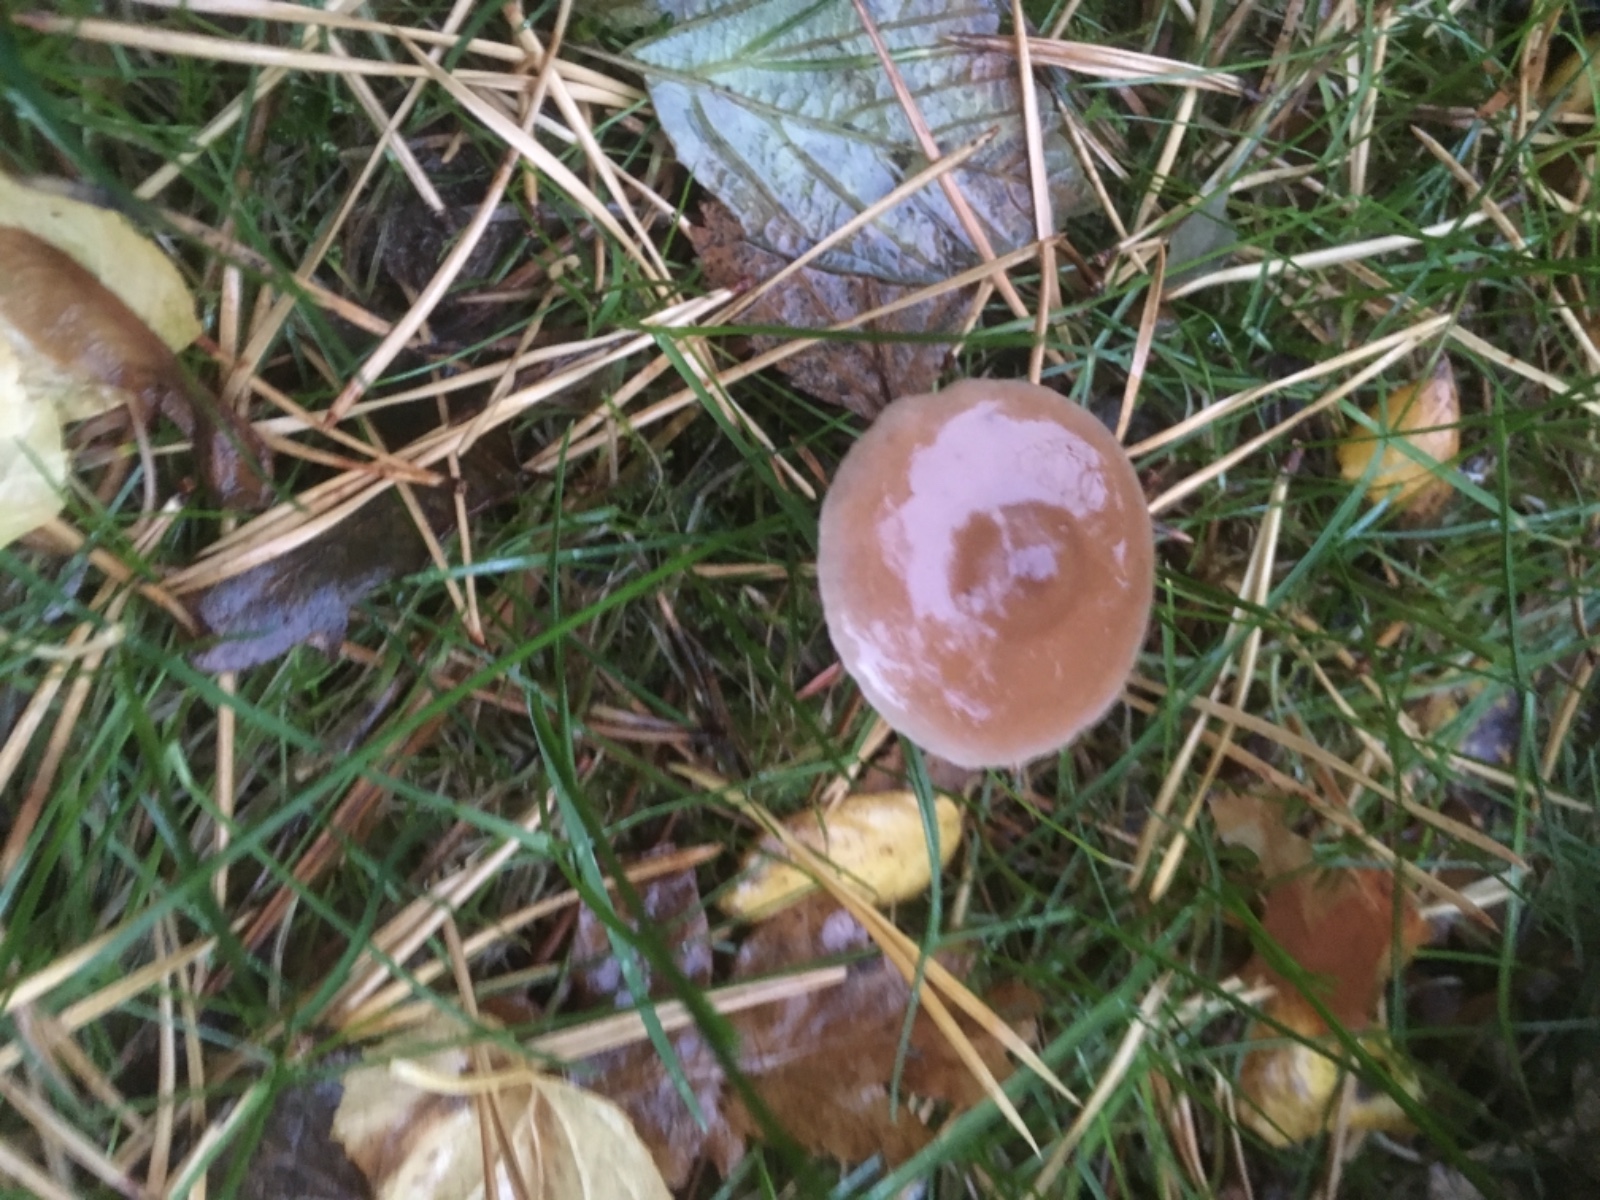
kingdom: Fungi
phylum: Basidiomycota
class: Agaricomycetes
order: Agaricales
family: Marasmiaceae
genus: Baeospora
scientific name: Baeospora myosura
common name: koglebruskhat
